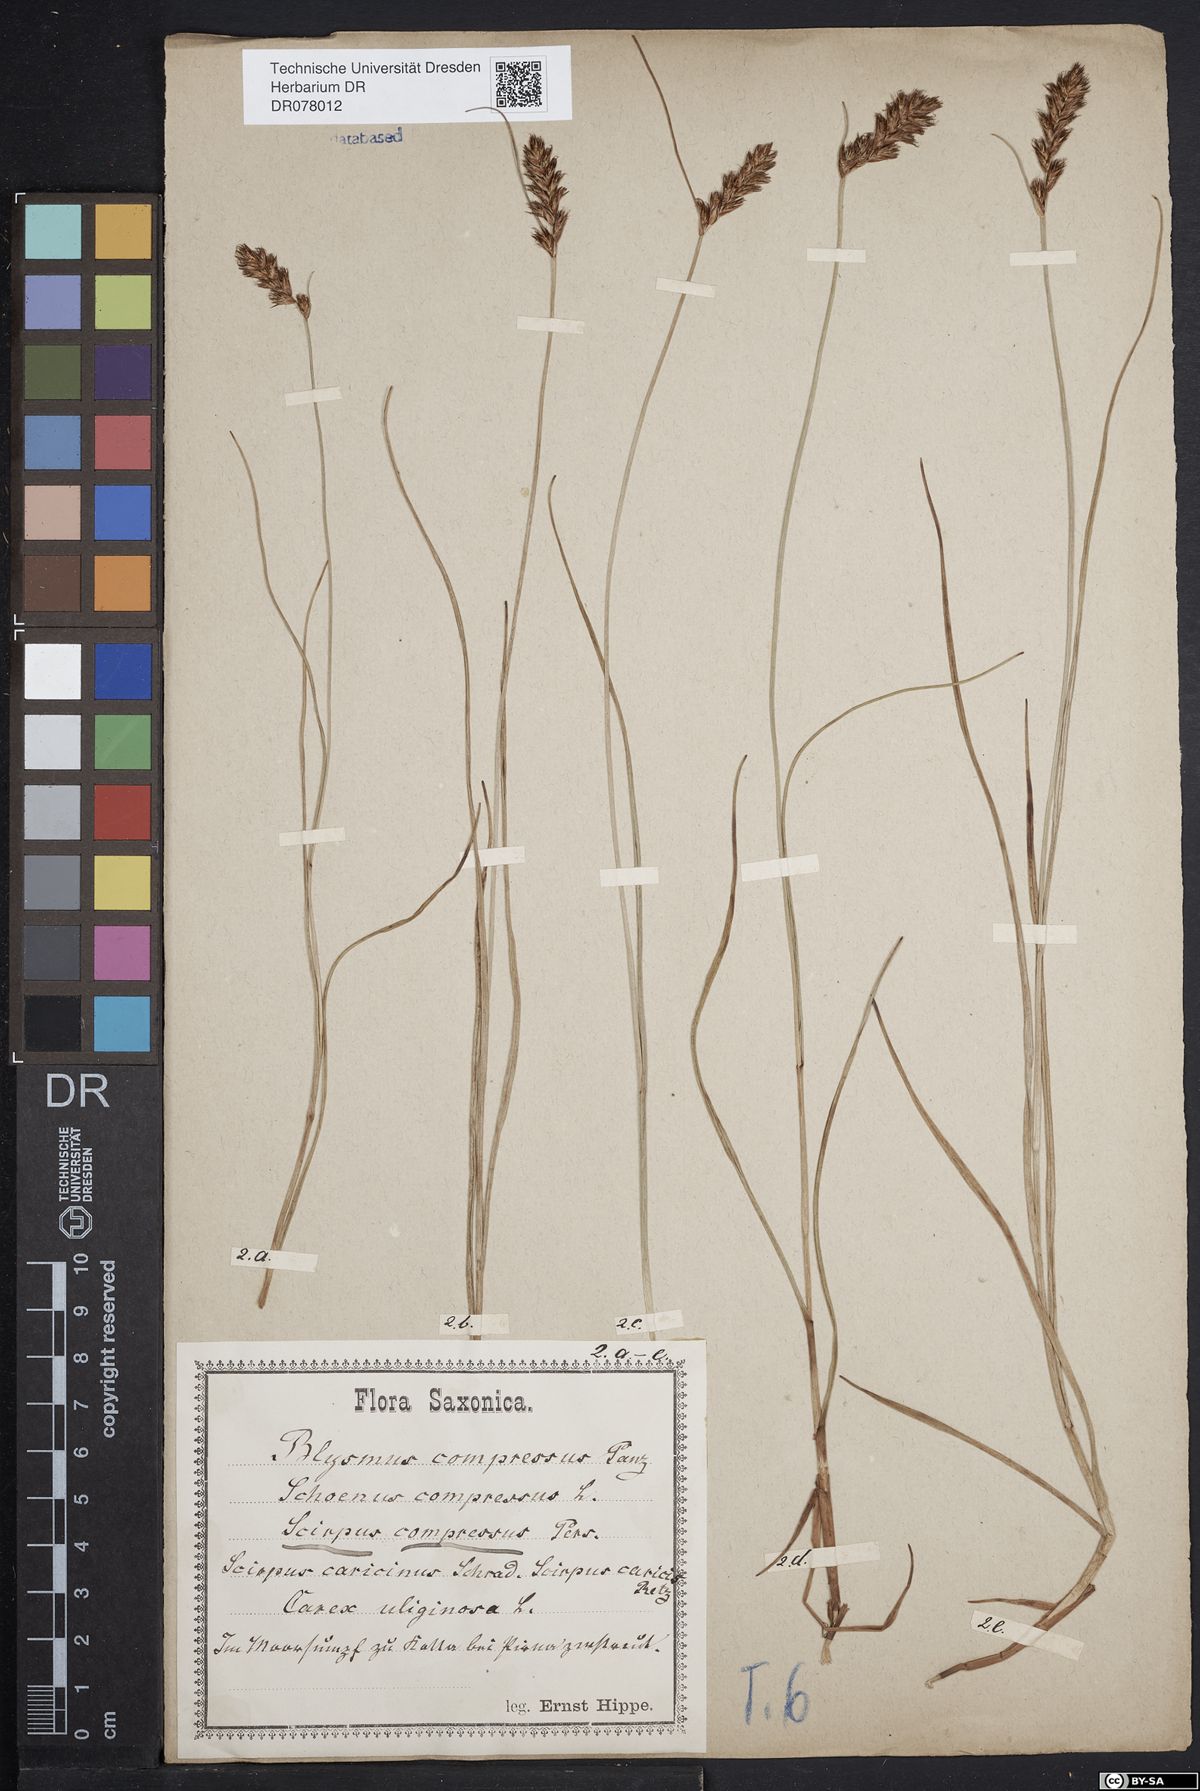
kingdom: Plantae
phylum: Tracheophyta
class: Liliopsida
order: Poales
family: Cyperaceae
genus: Blysmus
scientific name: Blysmus compressus
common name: Flat-sedge
